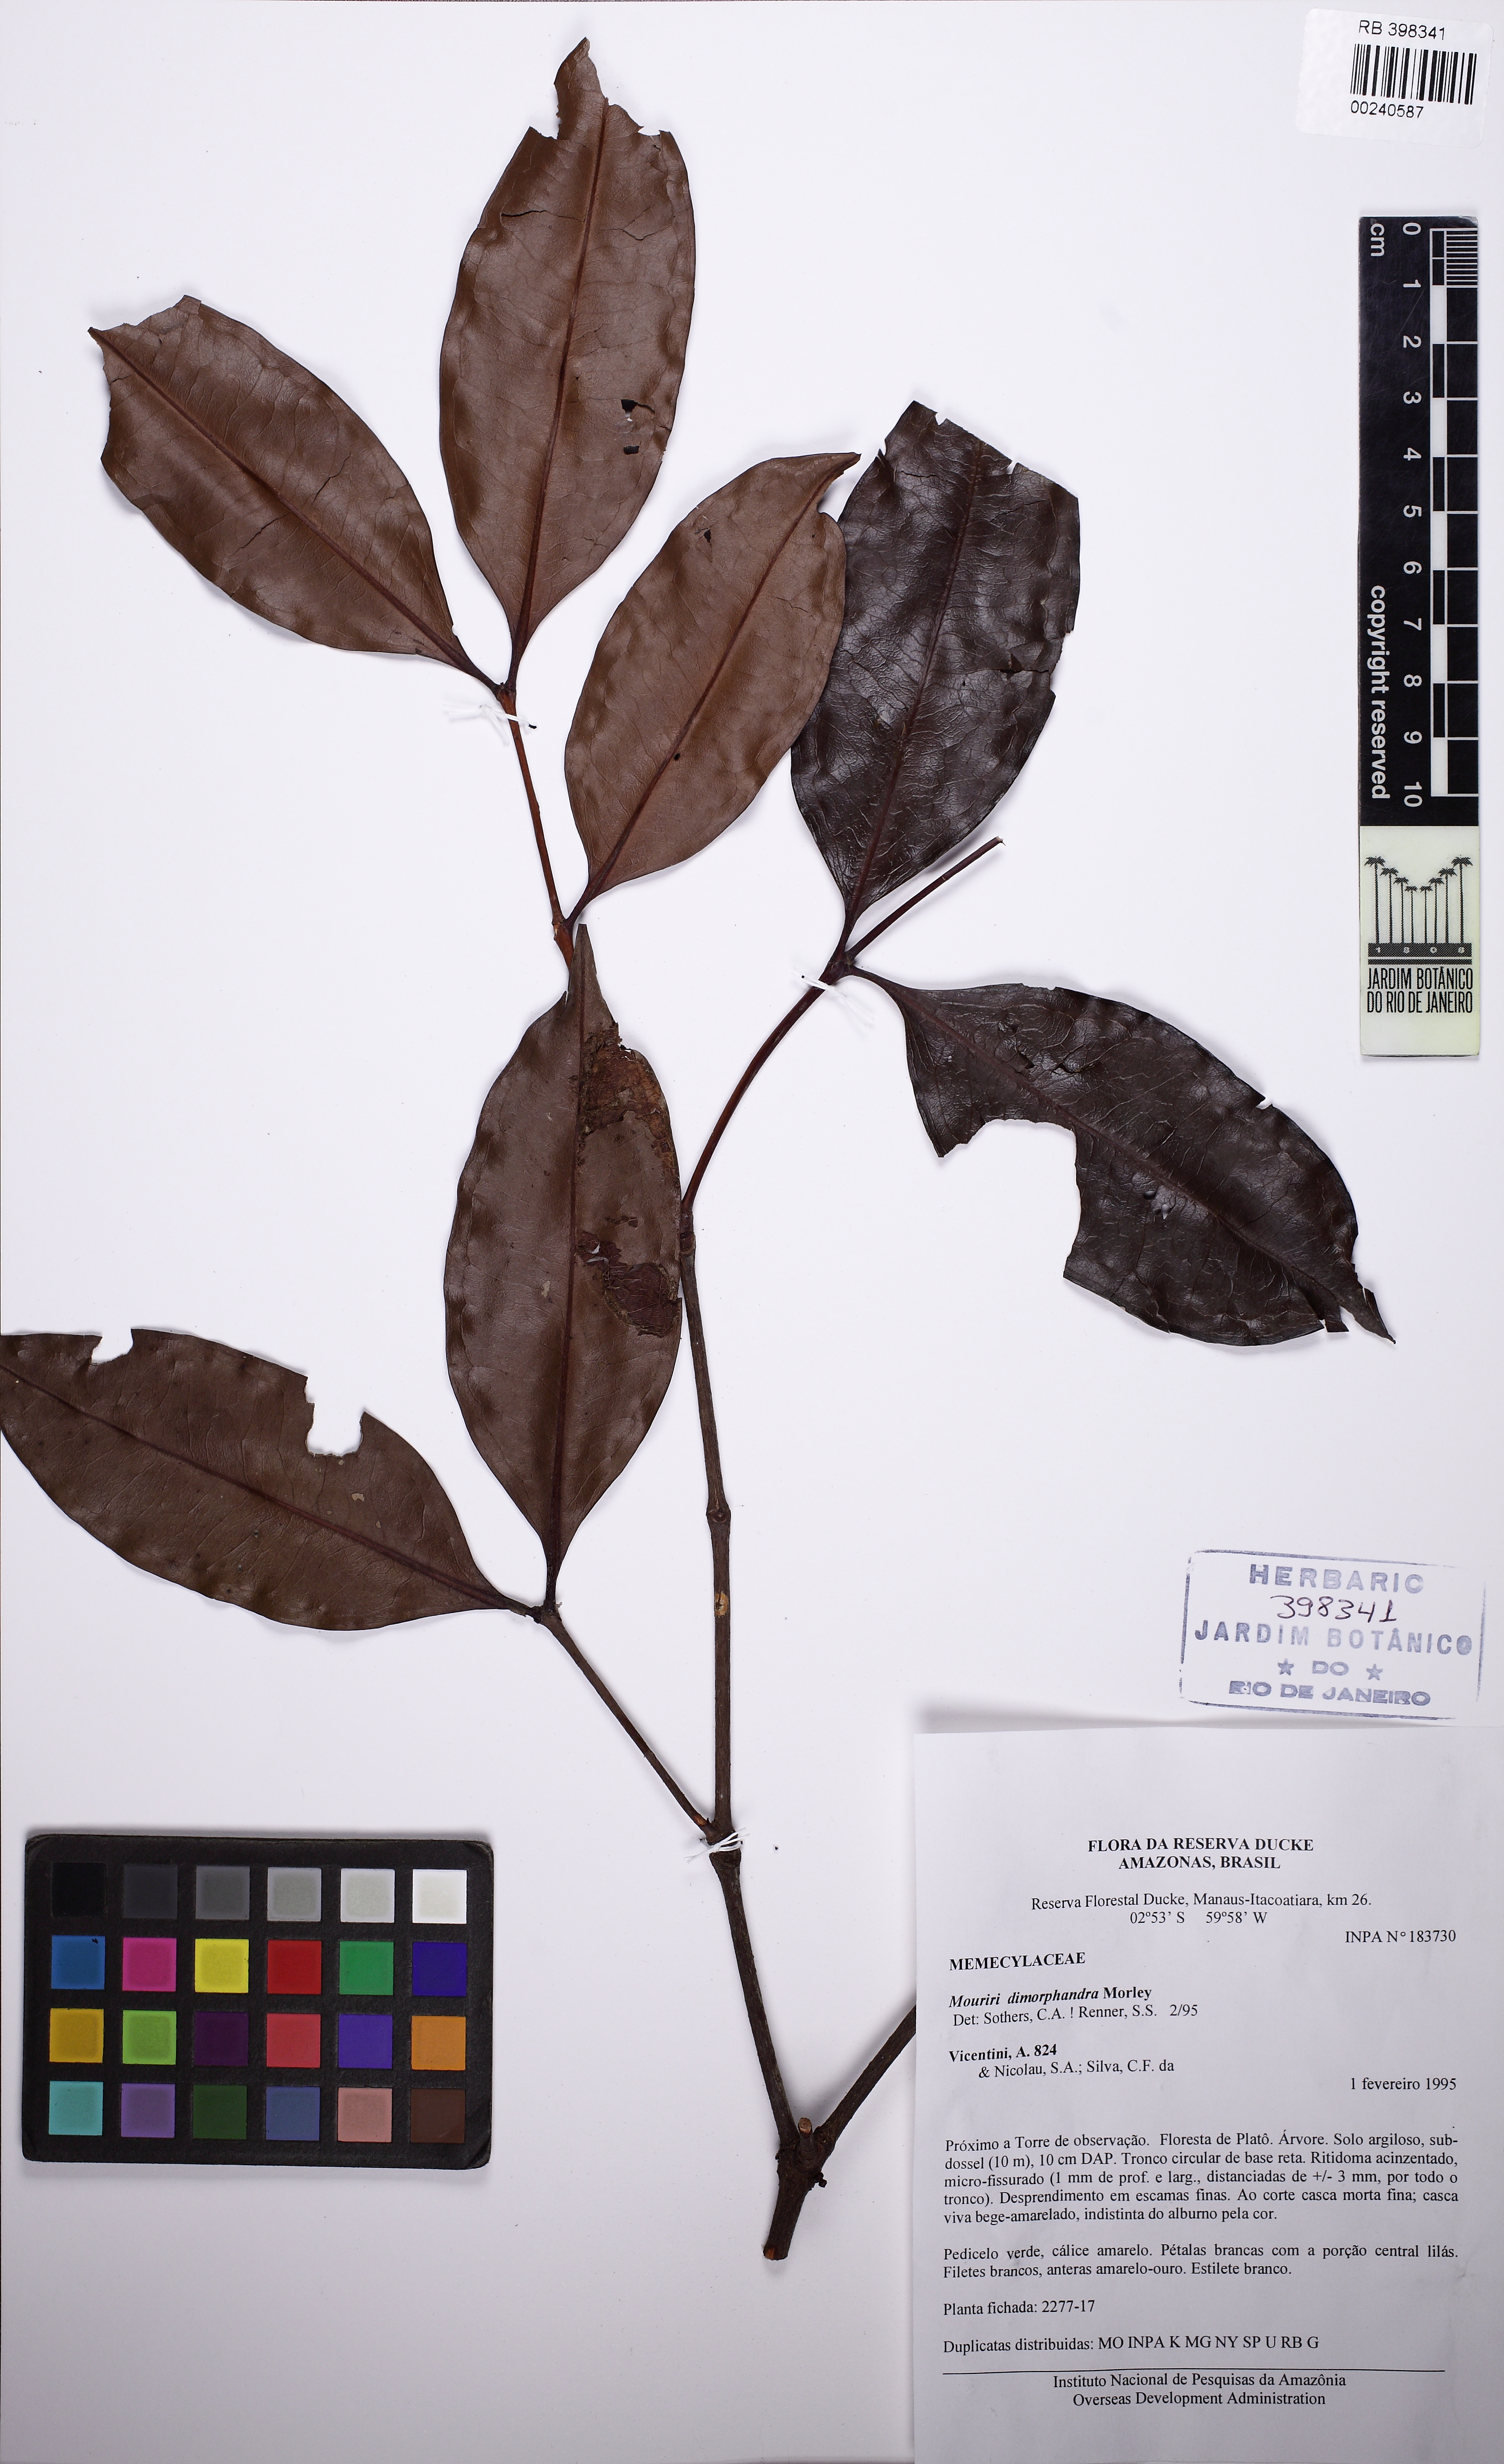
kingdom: Plantae
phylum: Tracheophyta
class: Magnoliopsida
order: Myrtales
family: Melastomataceae
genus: Mouriri
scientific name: Mouriri dimorphandra
